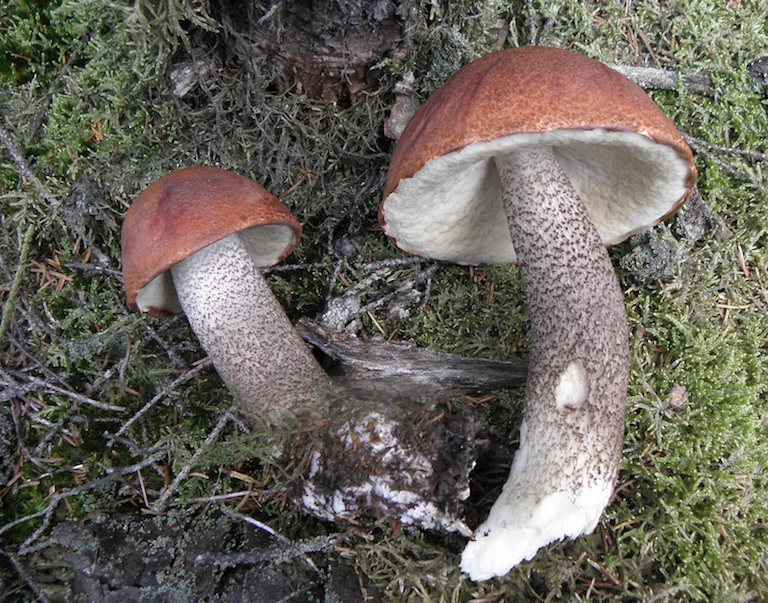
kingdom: Fungi
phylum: Basidiomycota
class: Agaricomycetes
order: Boletales
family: Boletaceae
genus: Leccinum
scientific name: Leccinum vulpinum
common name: fyrre-skælrørhat
